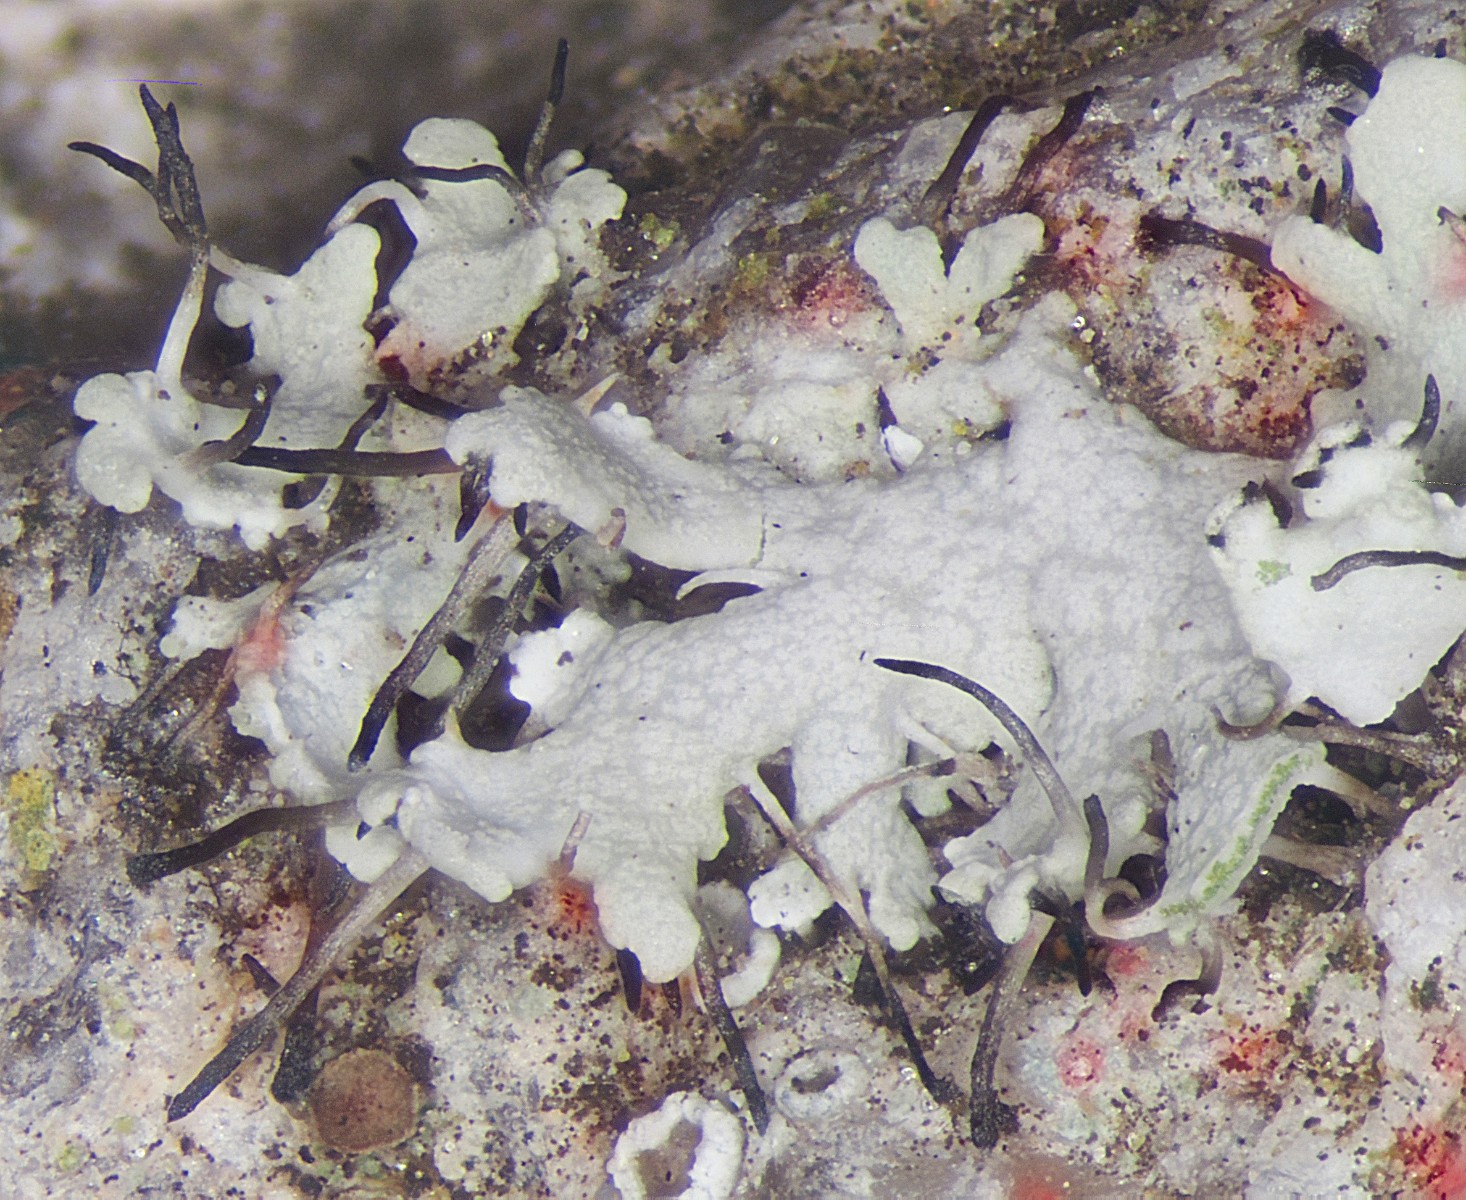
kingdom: Fungi
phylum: Ascomycota
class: Lecanoromycetes
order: Caliciales
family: Physciaceae
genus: Physcia
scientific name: Physcia tenella
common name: spæd rosetlav
